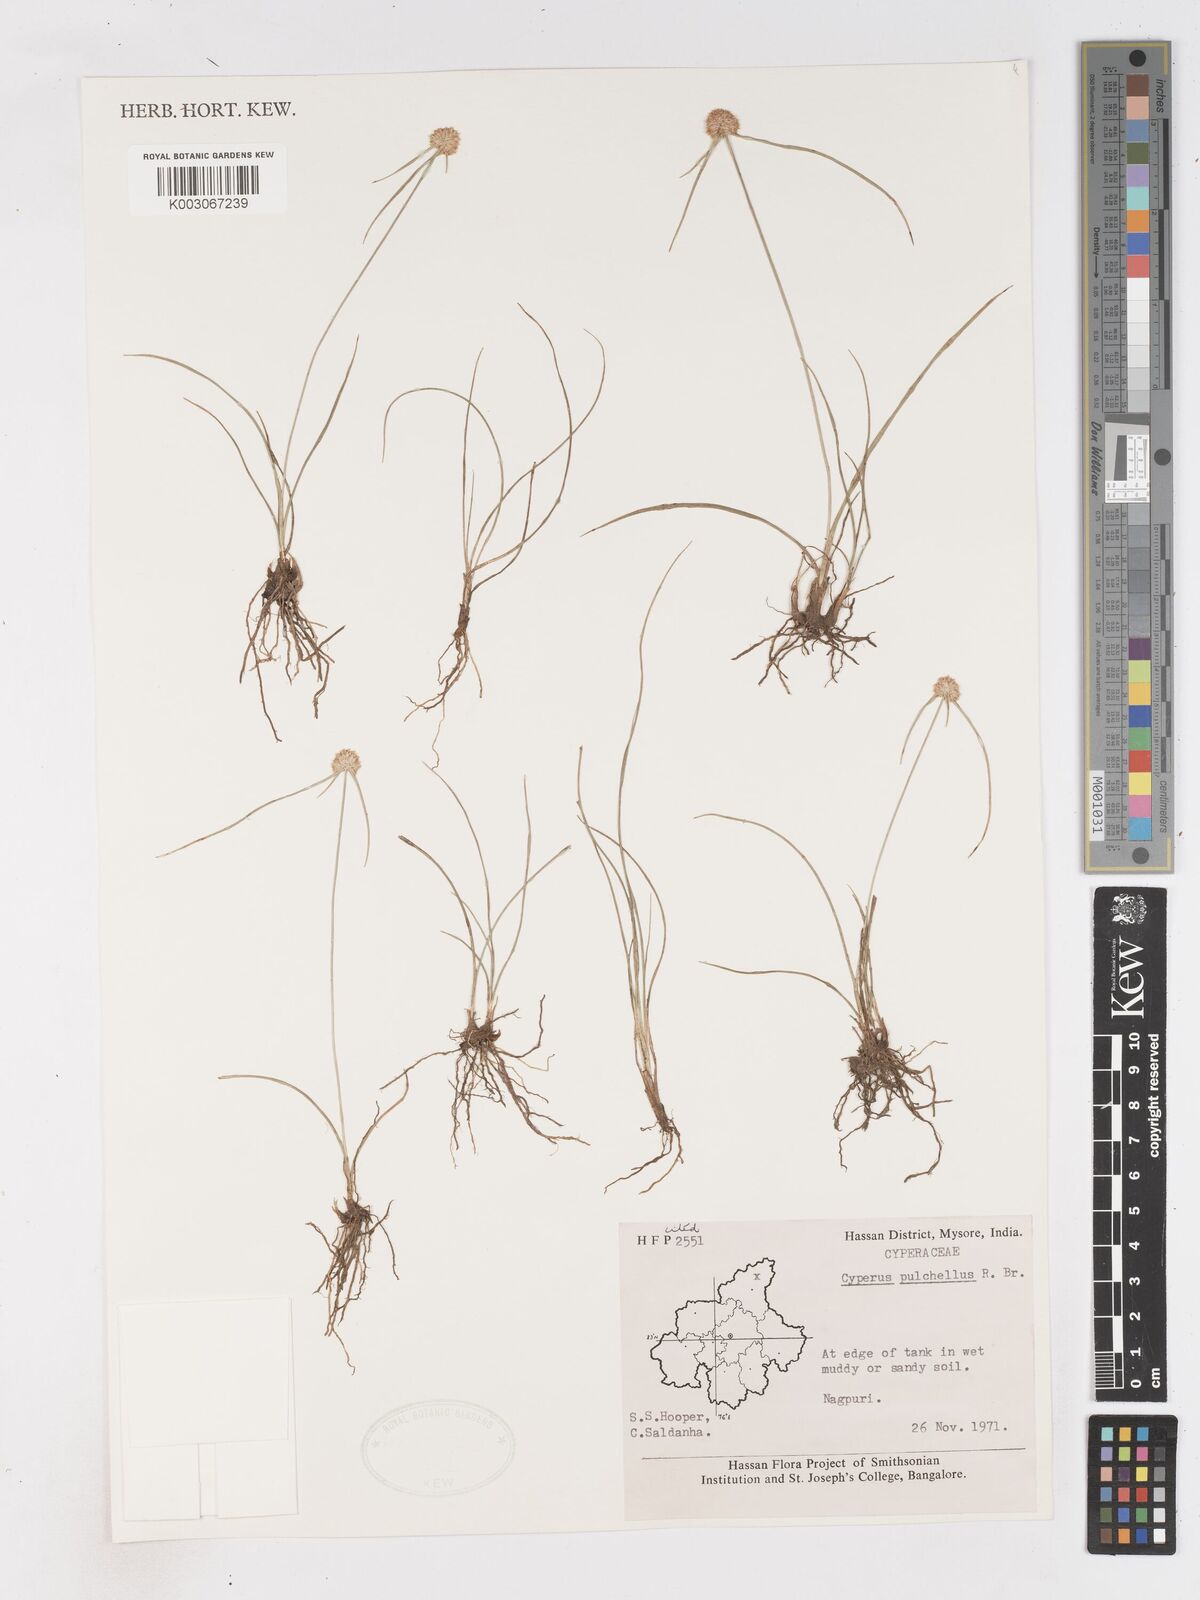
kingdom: Plantae
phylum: Tracheophyta
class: Liliopsida
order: Poales
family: Cyperaceae
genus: Cyperus
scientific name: Cyperus pulchellus
